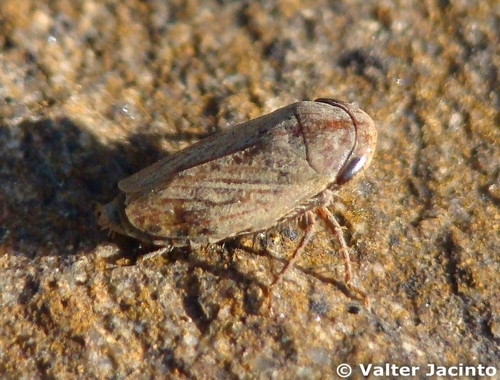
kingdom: Animalia
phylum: Arthropoda
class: Insecta
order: Hemiptera
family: Cicadellidae
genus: Goniagnathus
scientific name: Goniagnathus brevis
